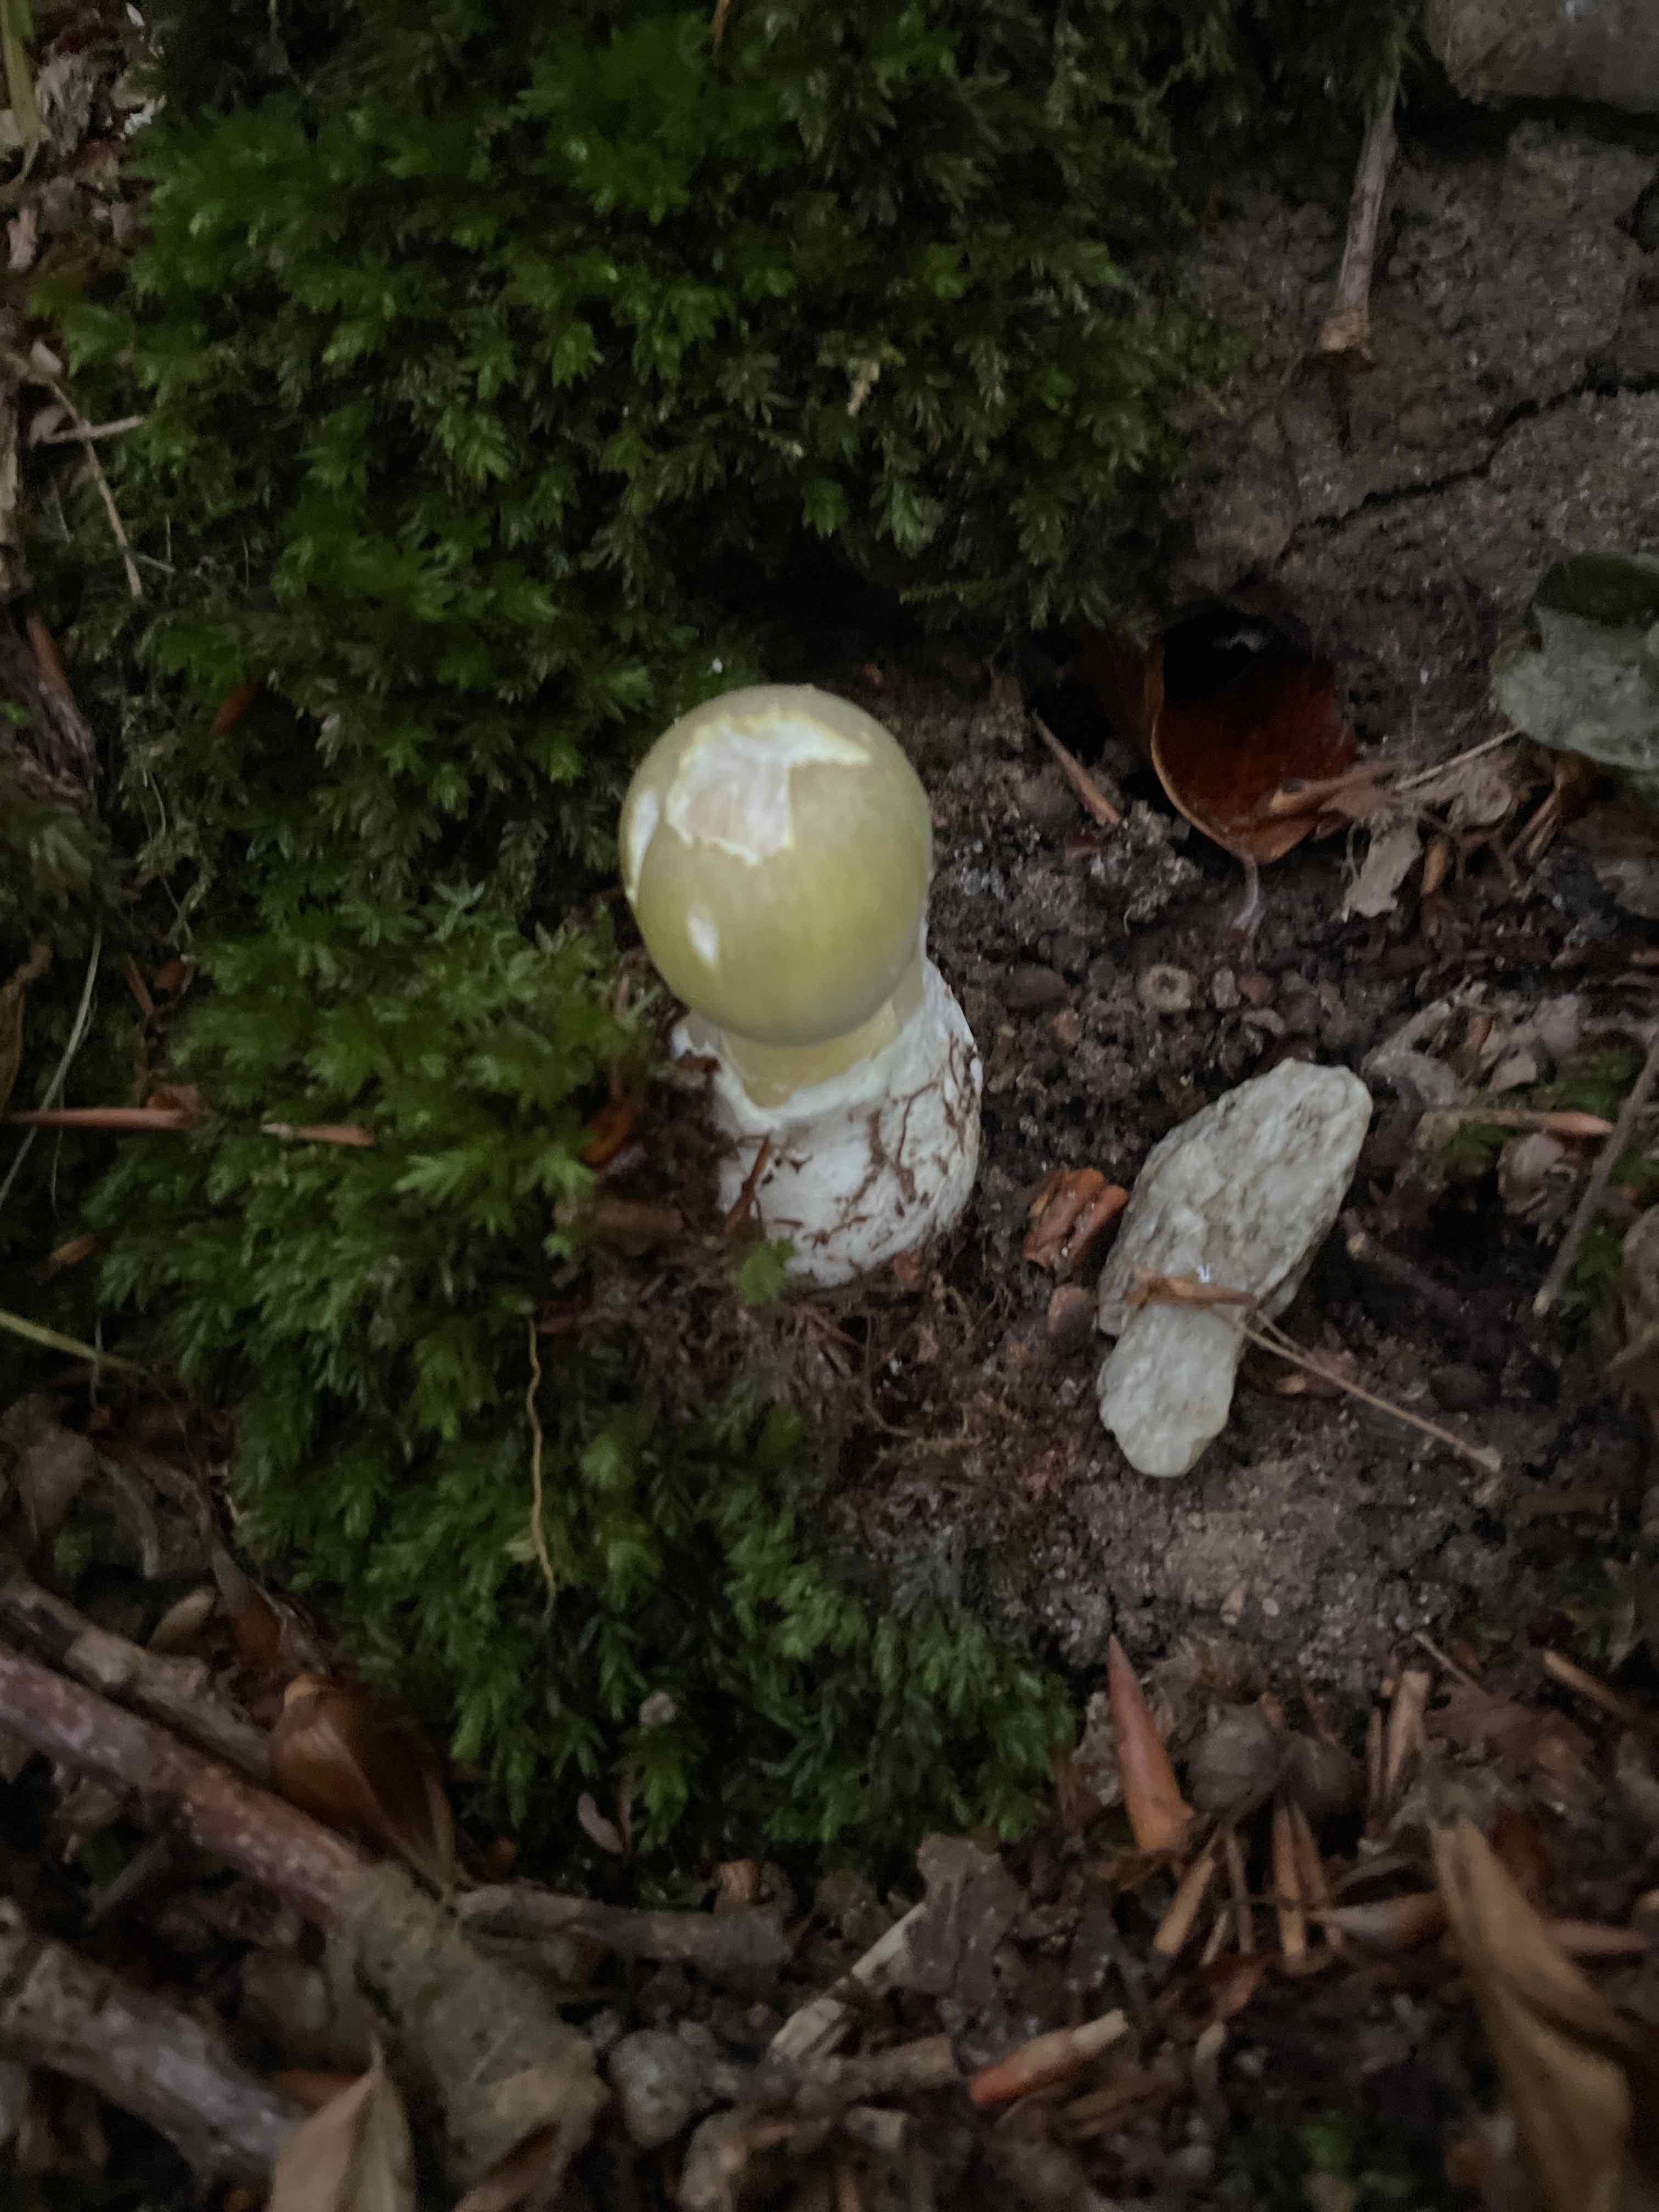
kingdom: Fungi
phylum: Basidiomycota
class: Agaricomycetes
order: Agaricales
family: Amanitaceae
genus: Amanita
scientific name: Amanita phalloides
